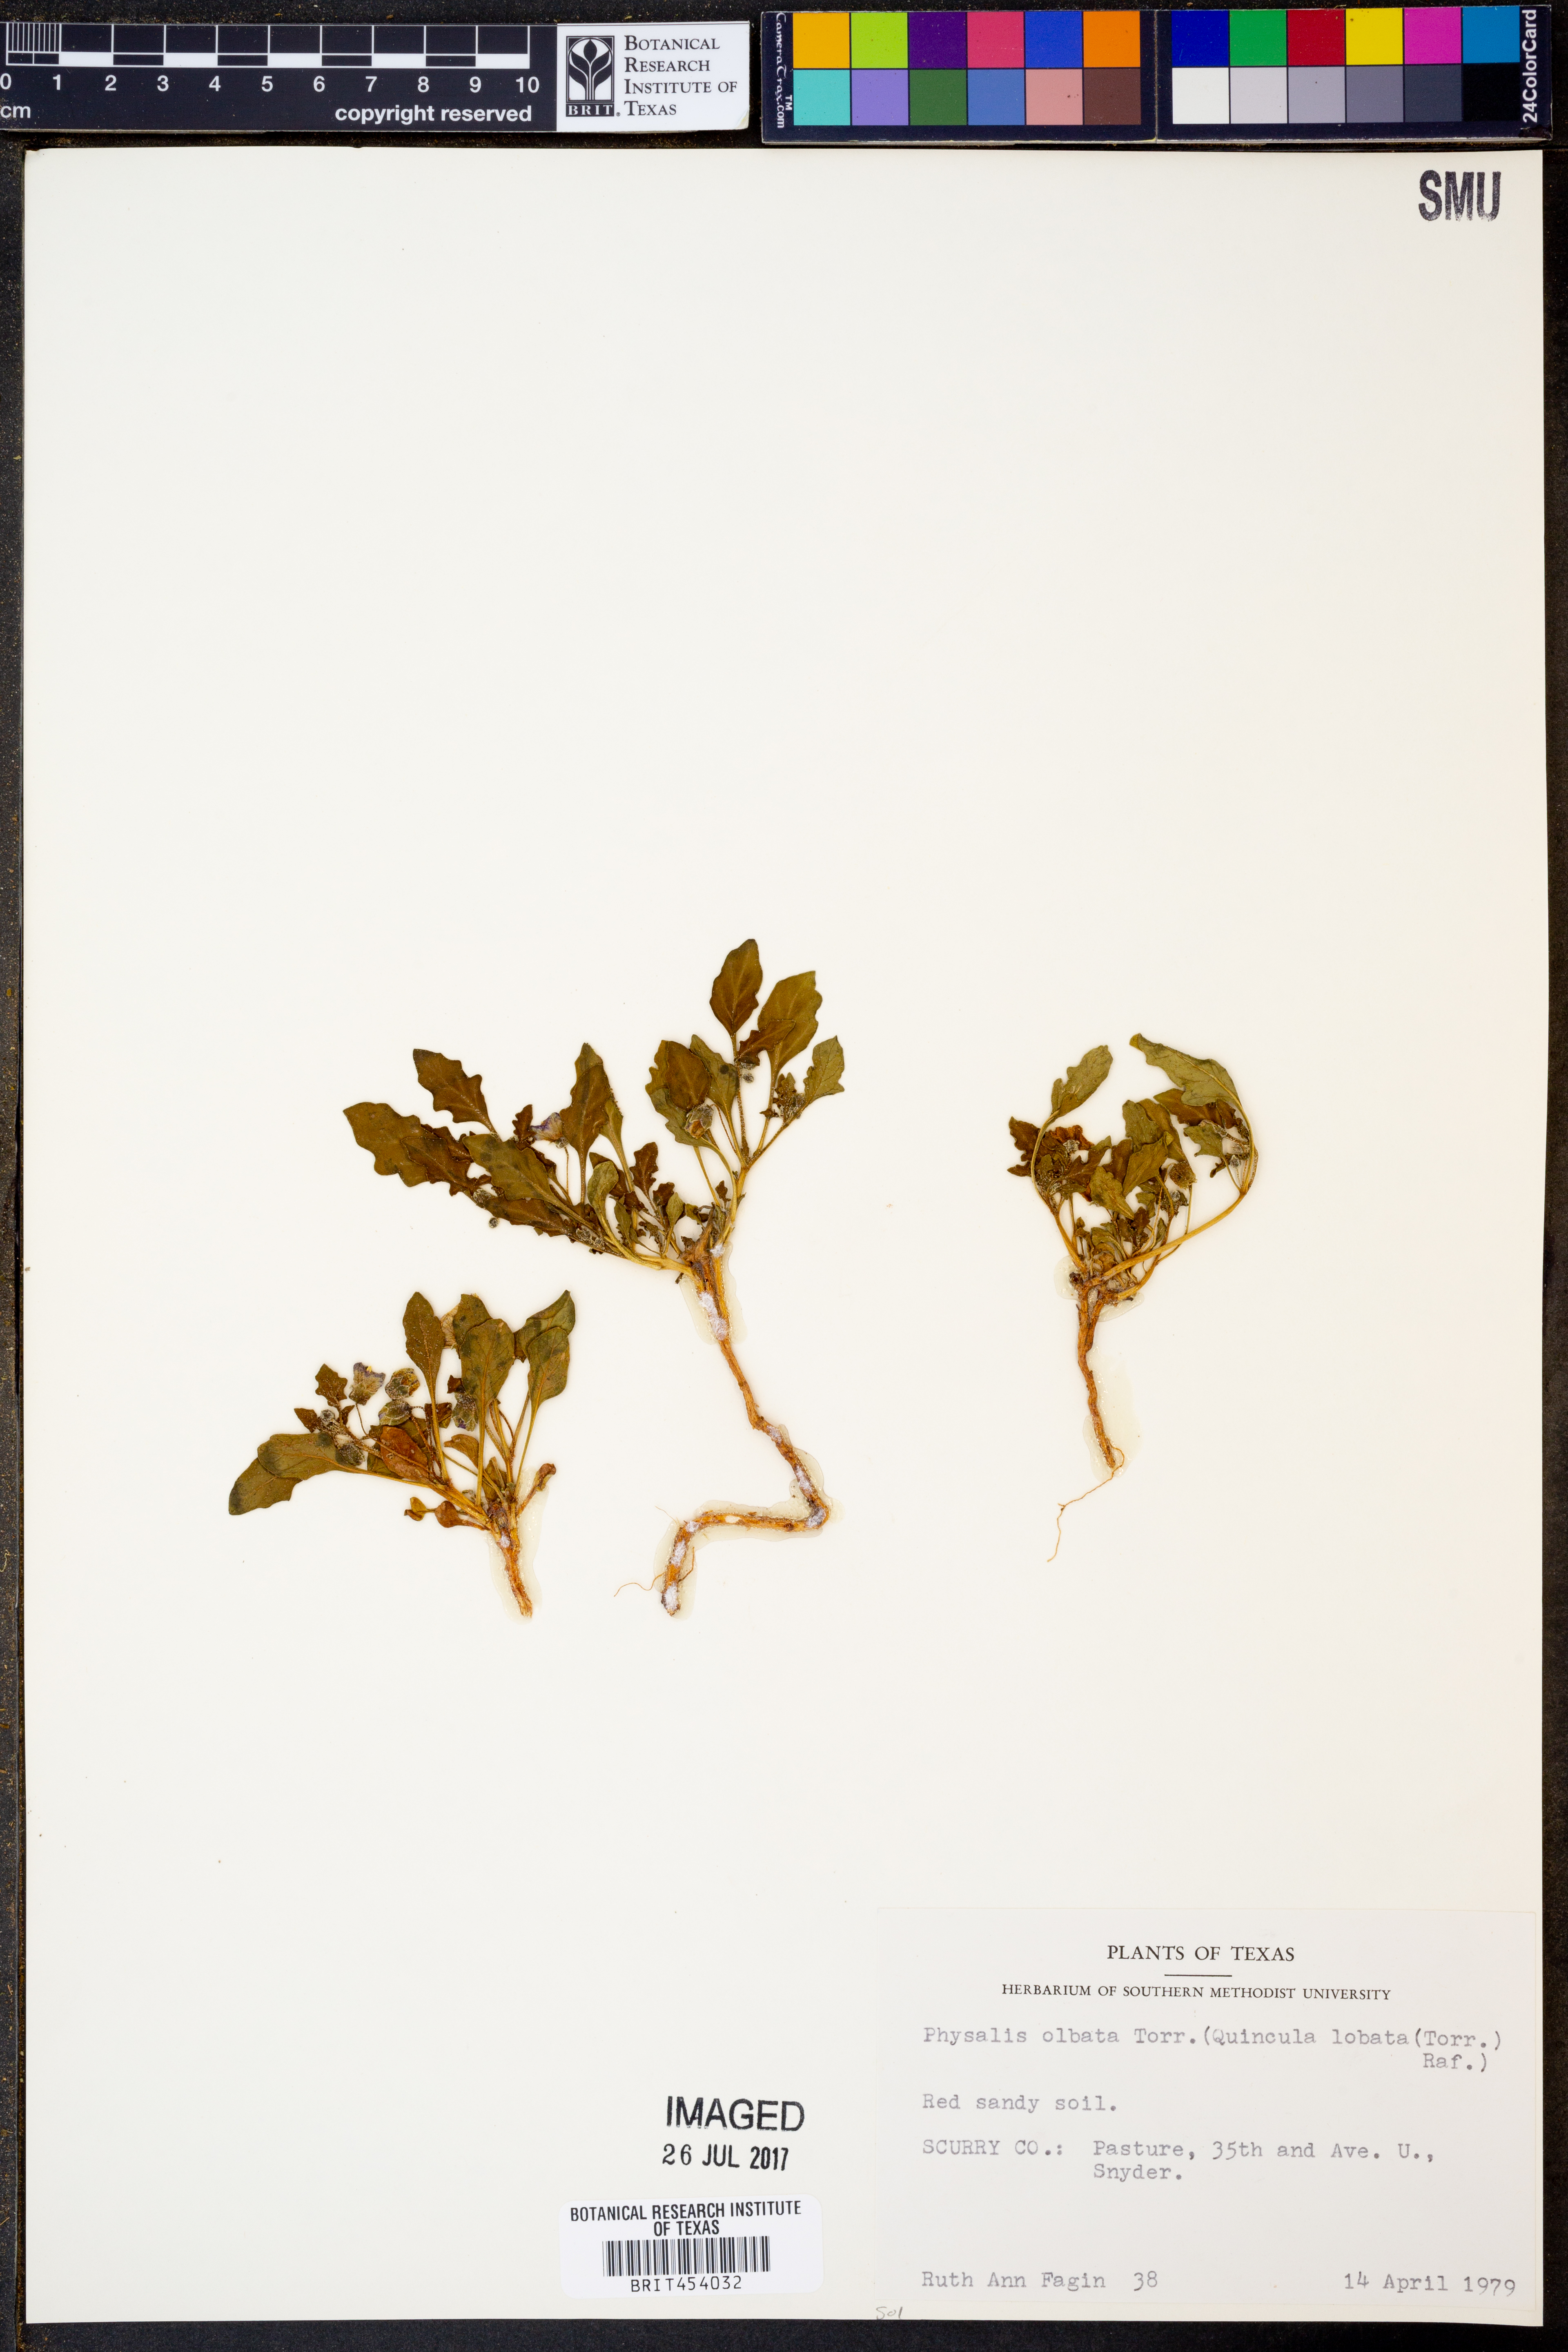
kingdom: Plantae
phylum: Tracheophyta
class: Magnoliopsida
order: Solanales
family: Solanaceae
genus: Quincula
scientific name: Quincula lobata
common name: Purple-ground-cherry
